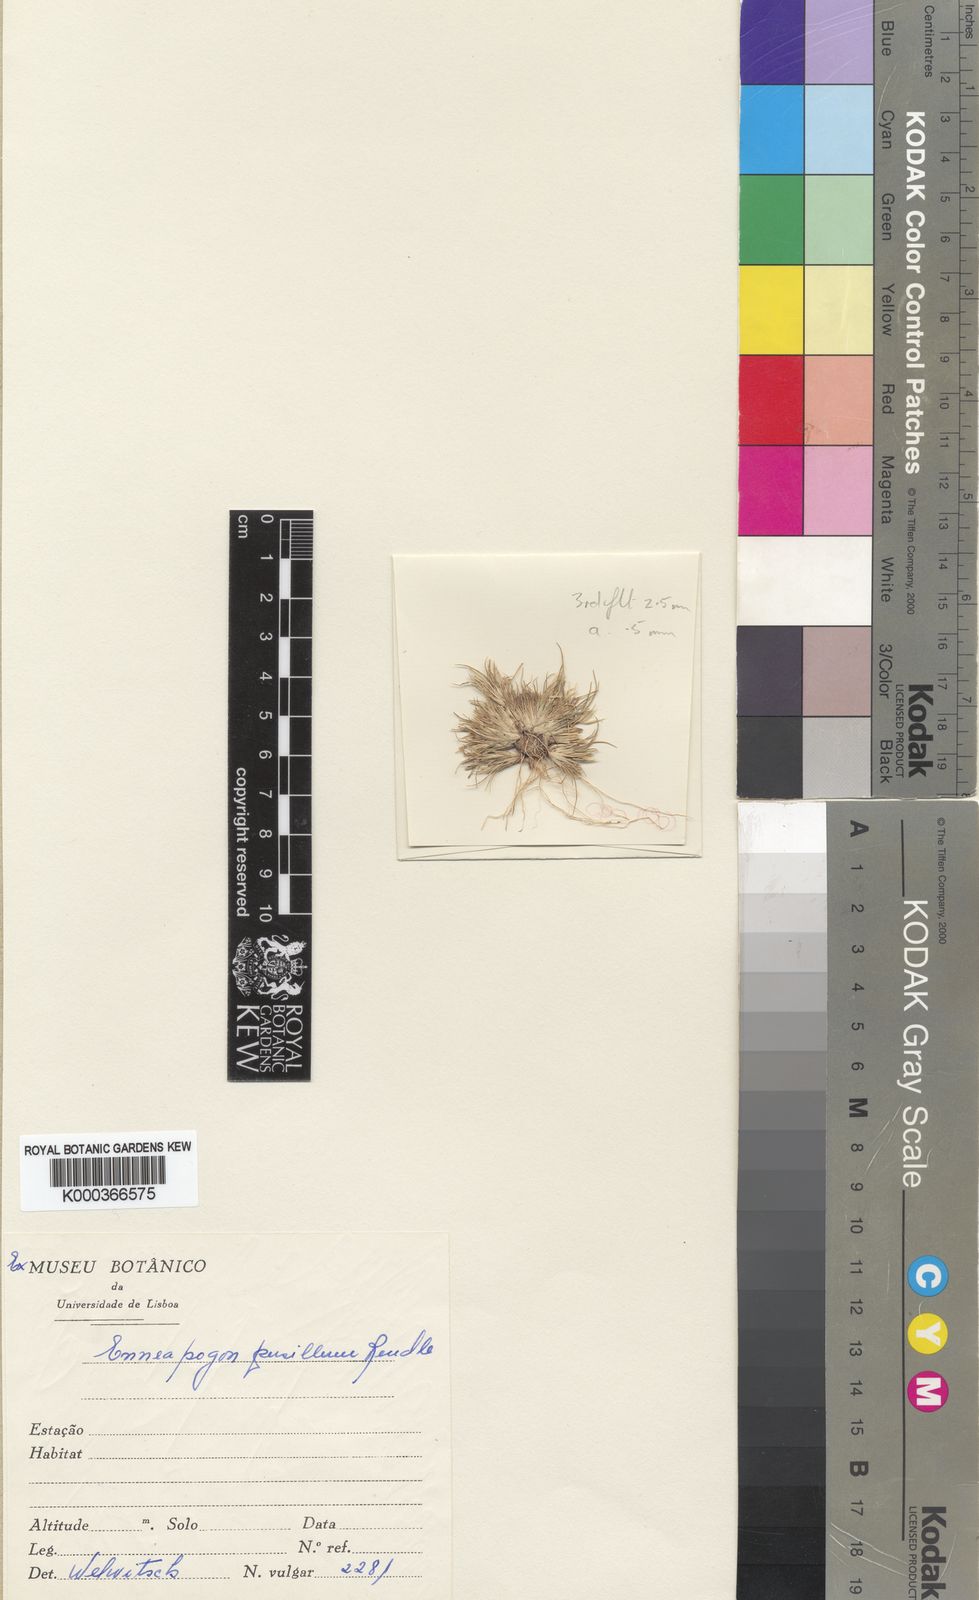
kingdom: Plantae
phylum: Tracheophyta
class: Liliopsida
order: Poales
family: Poaceae
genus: Enneapogon
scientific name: Enneapogon desvauxii
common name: Feather pappus grass
